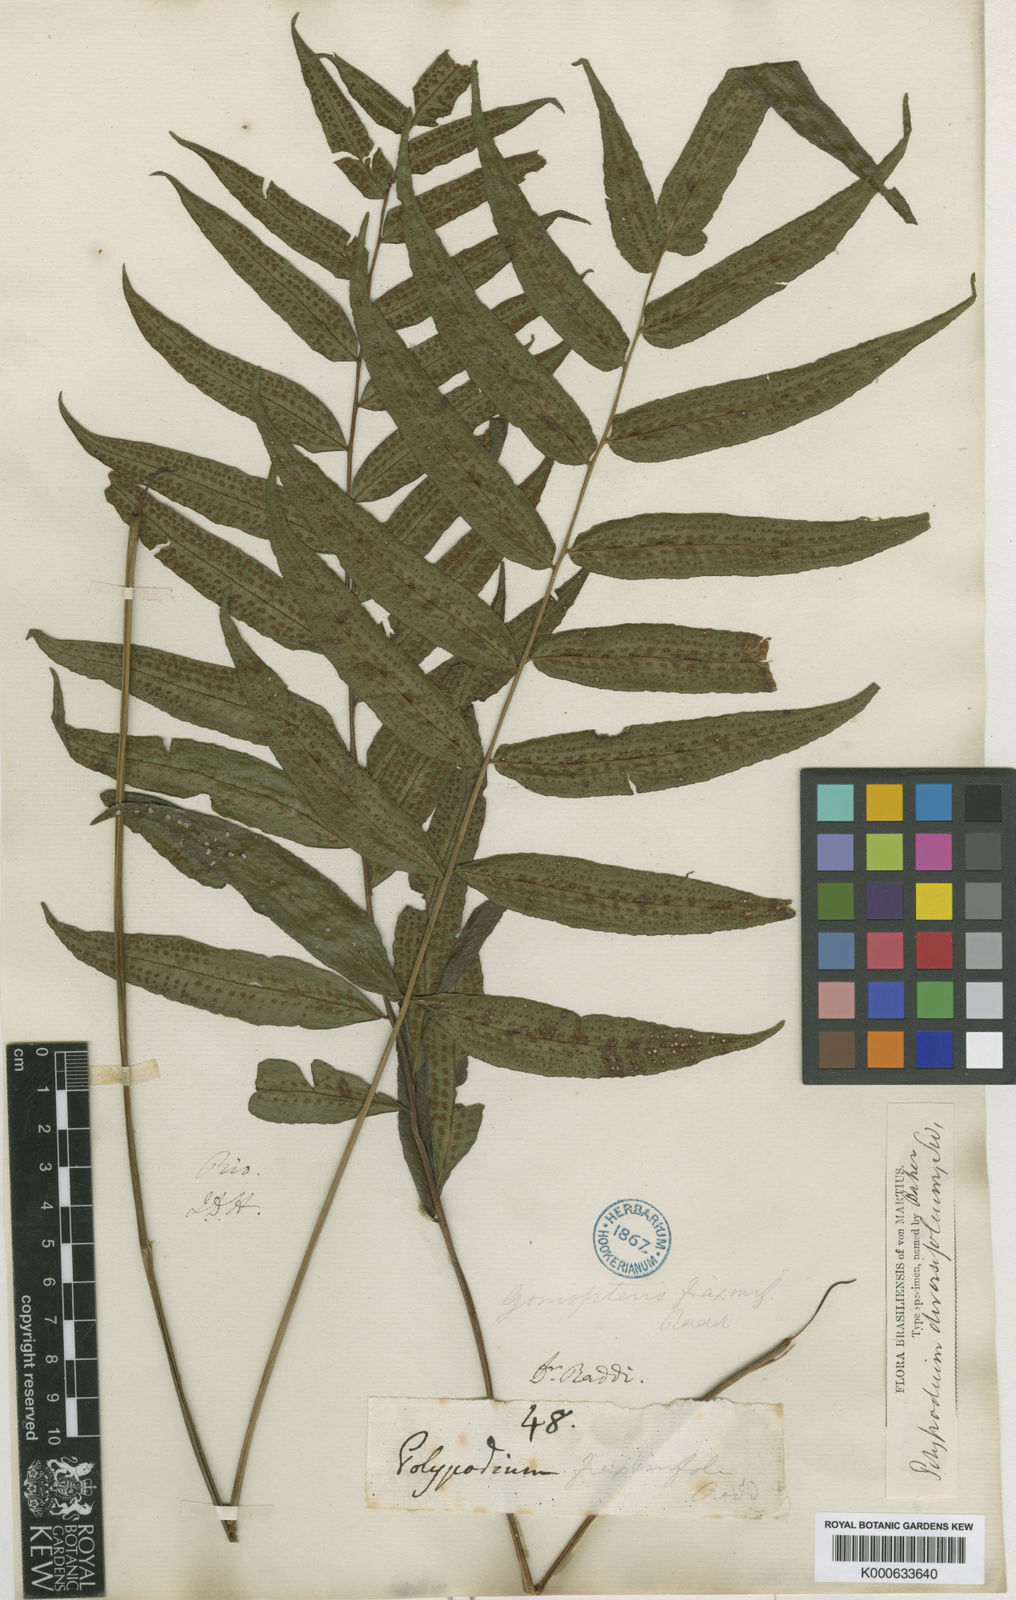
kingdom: Plantae
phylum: Tracheophyta
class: Polypodiopsida
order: Polypodiales
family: Thelypteridaceae
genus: Goniopteris
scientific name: Goniopteris vivipara
